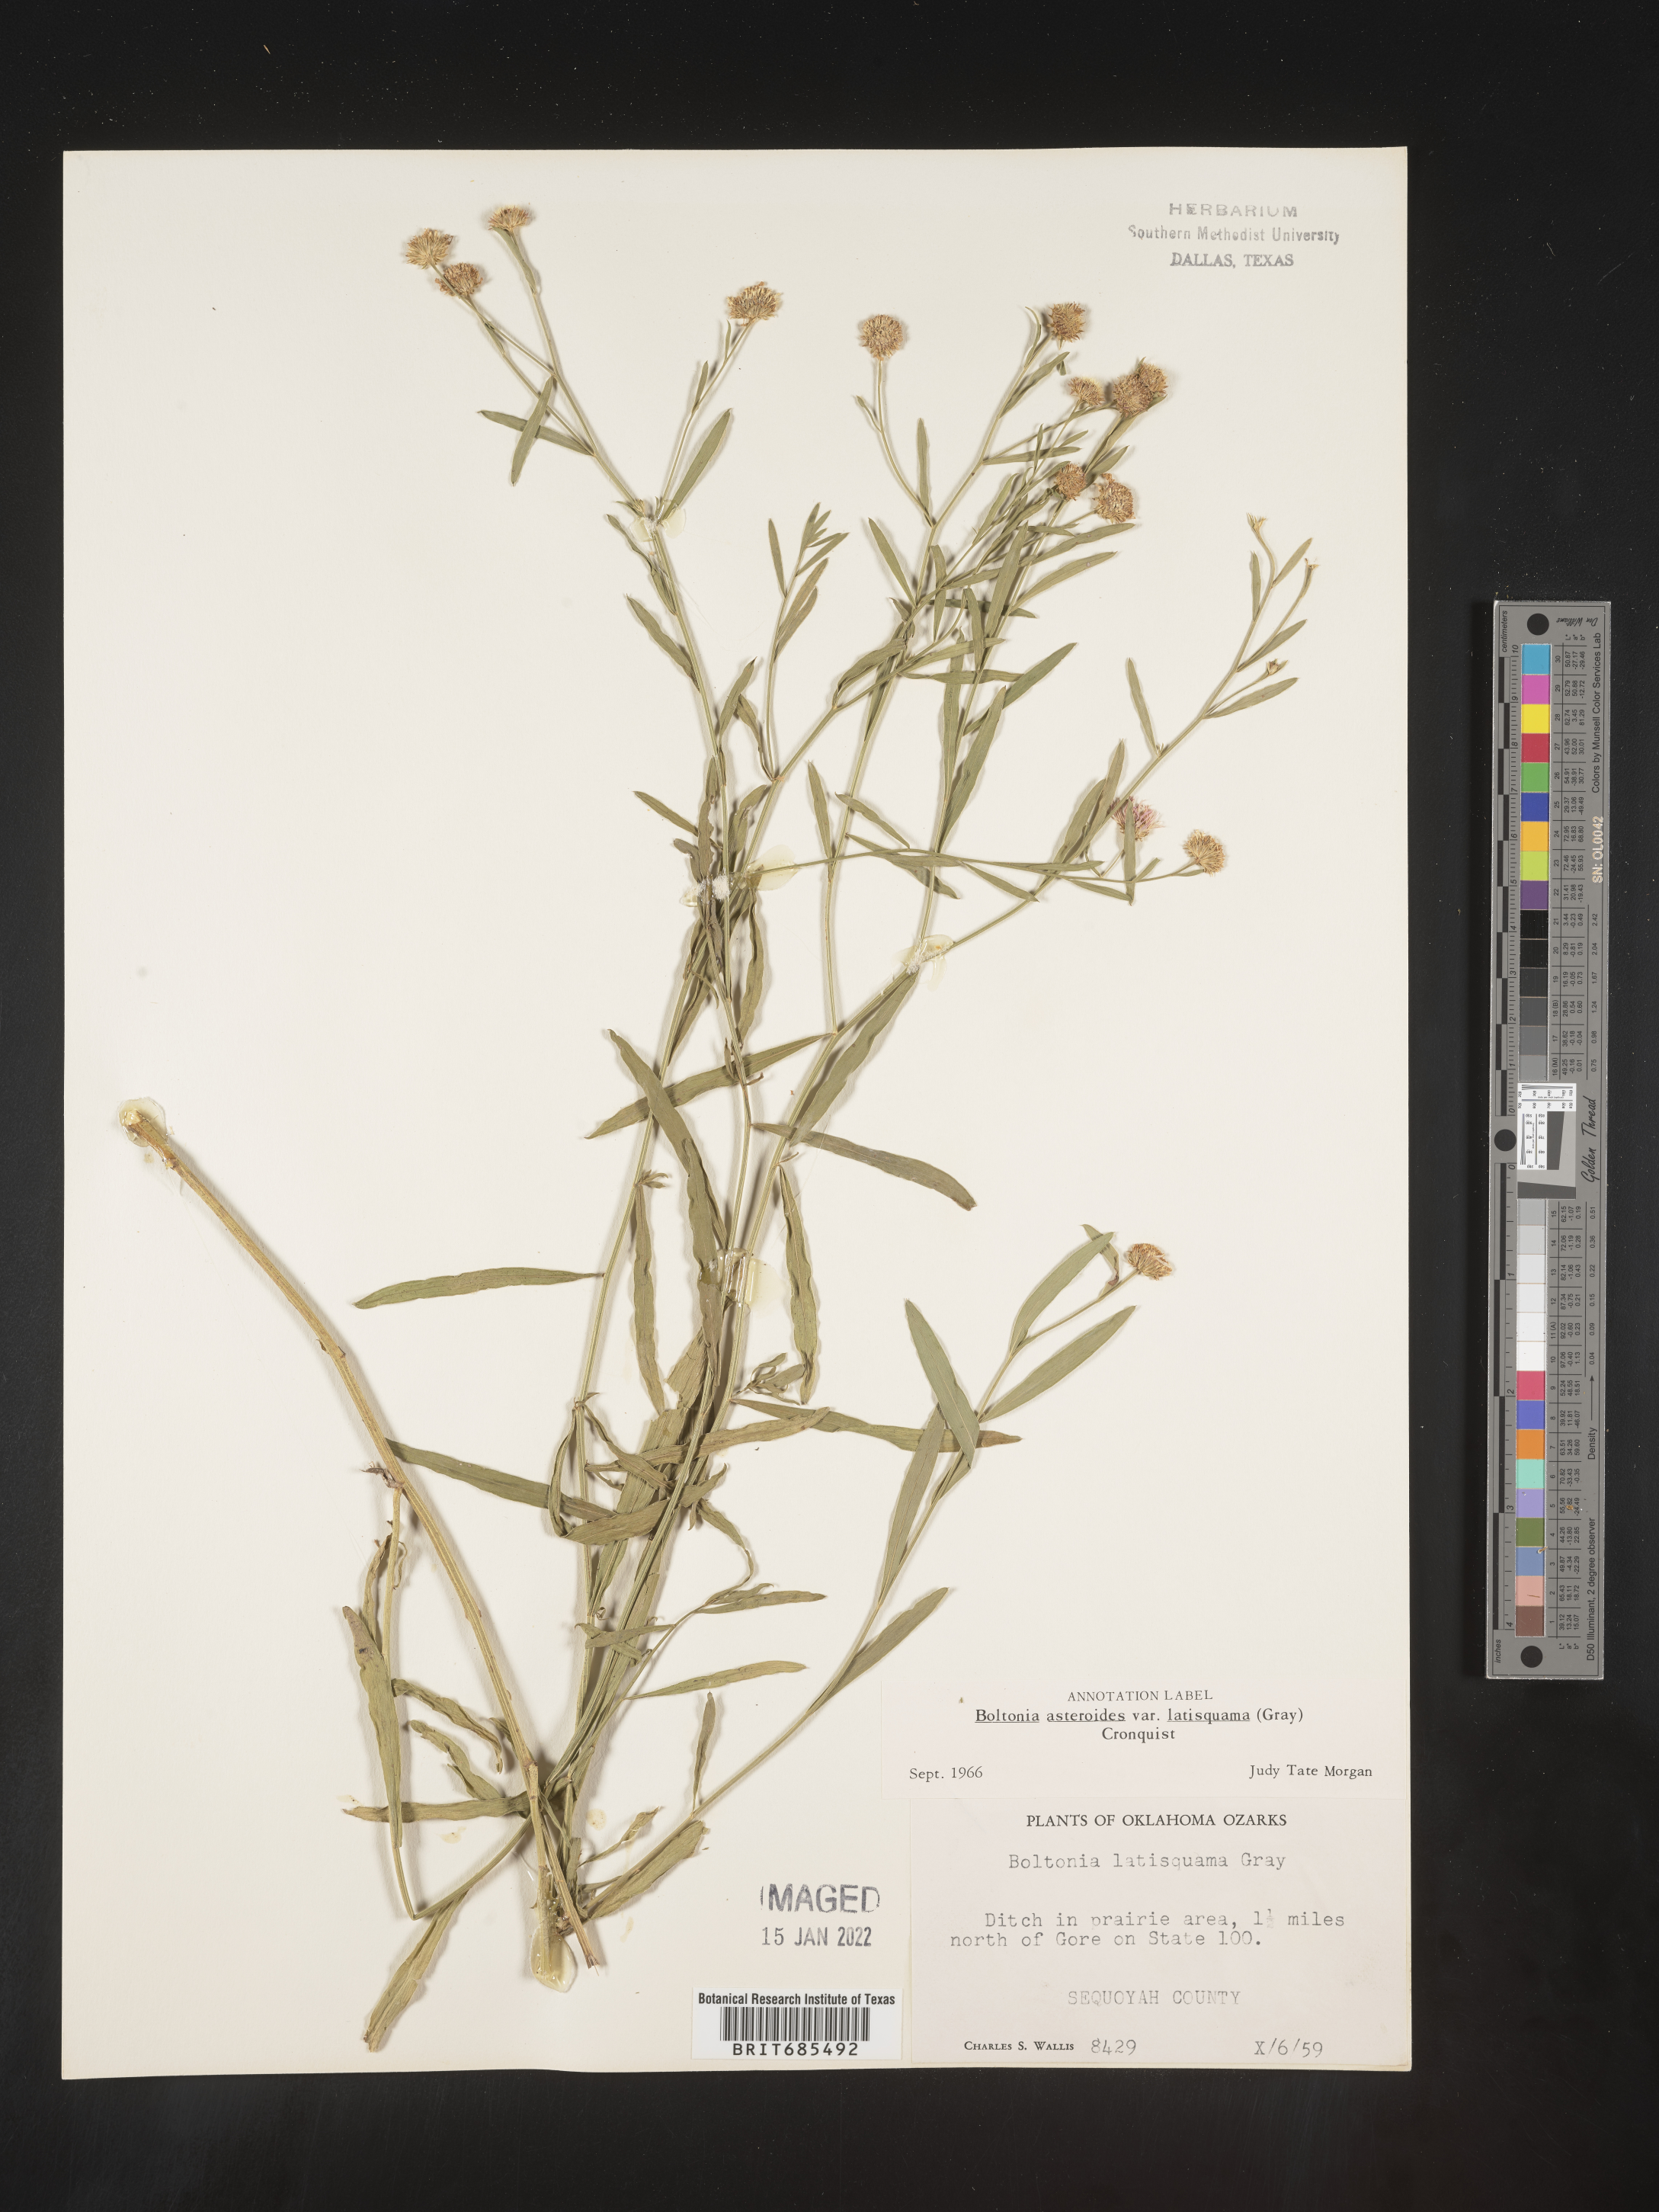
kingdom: Plantae
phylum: Tracheophyta
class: Magnoliopsida
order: Asterales
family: Asteraceae
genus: Boltonia
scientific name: Boltonia asteroides
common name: False chamomile
